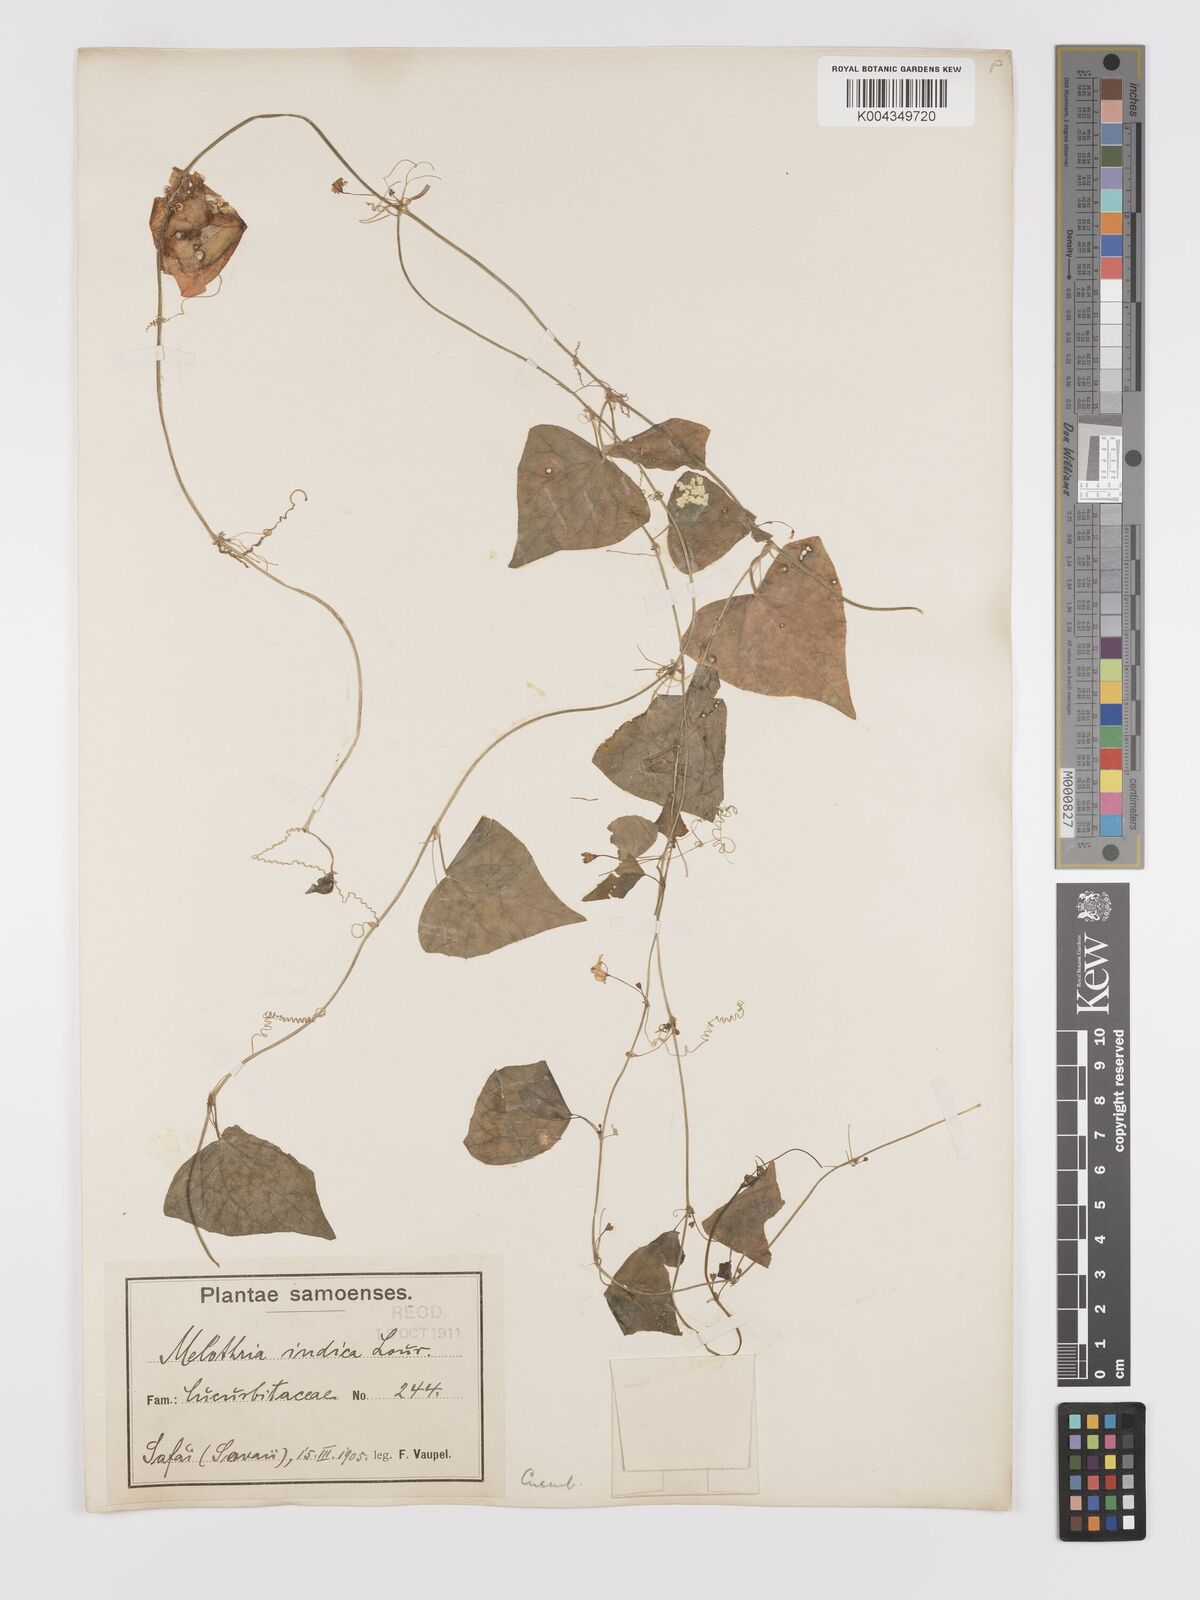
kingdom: Plantae
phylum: Tracheophyta
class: Magnoliopsida
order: Cucurbitales
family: Cucurbitaceae
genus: Zehneria
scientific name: Zehneria mucronata
